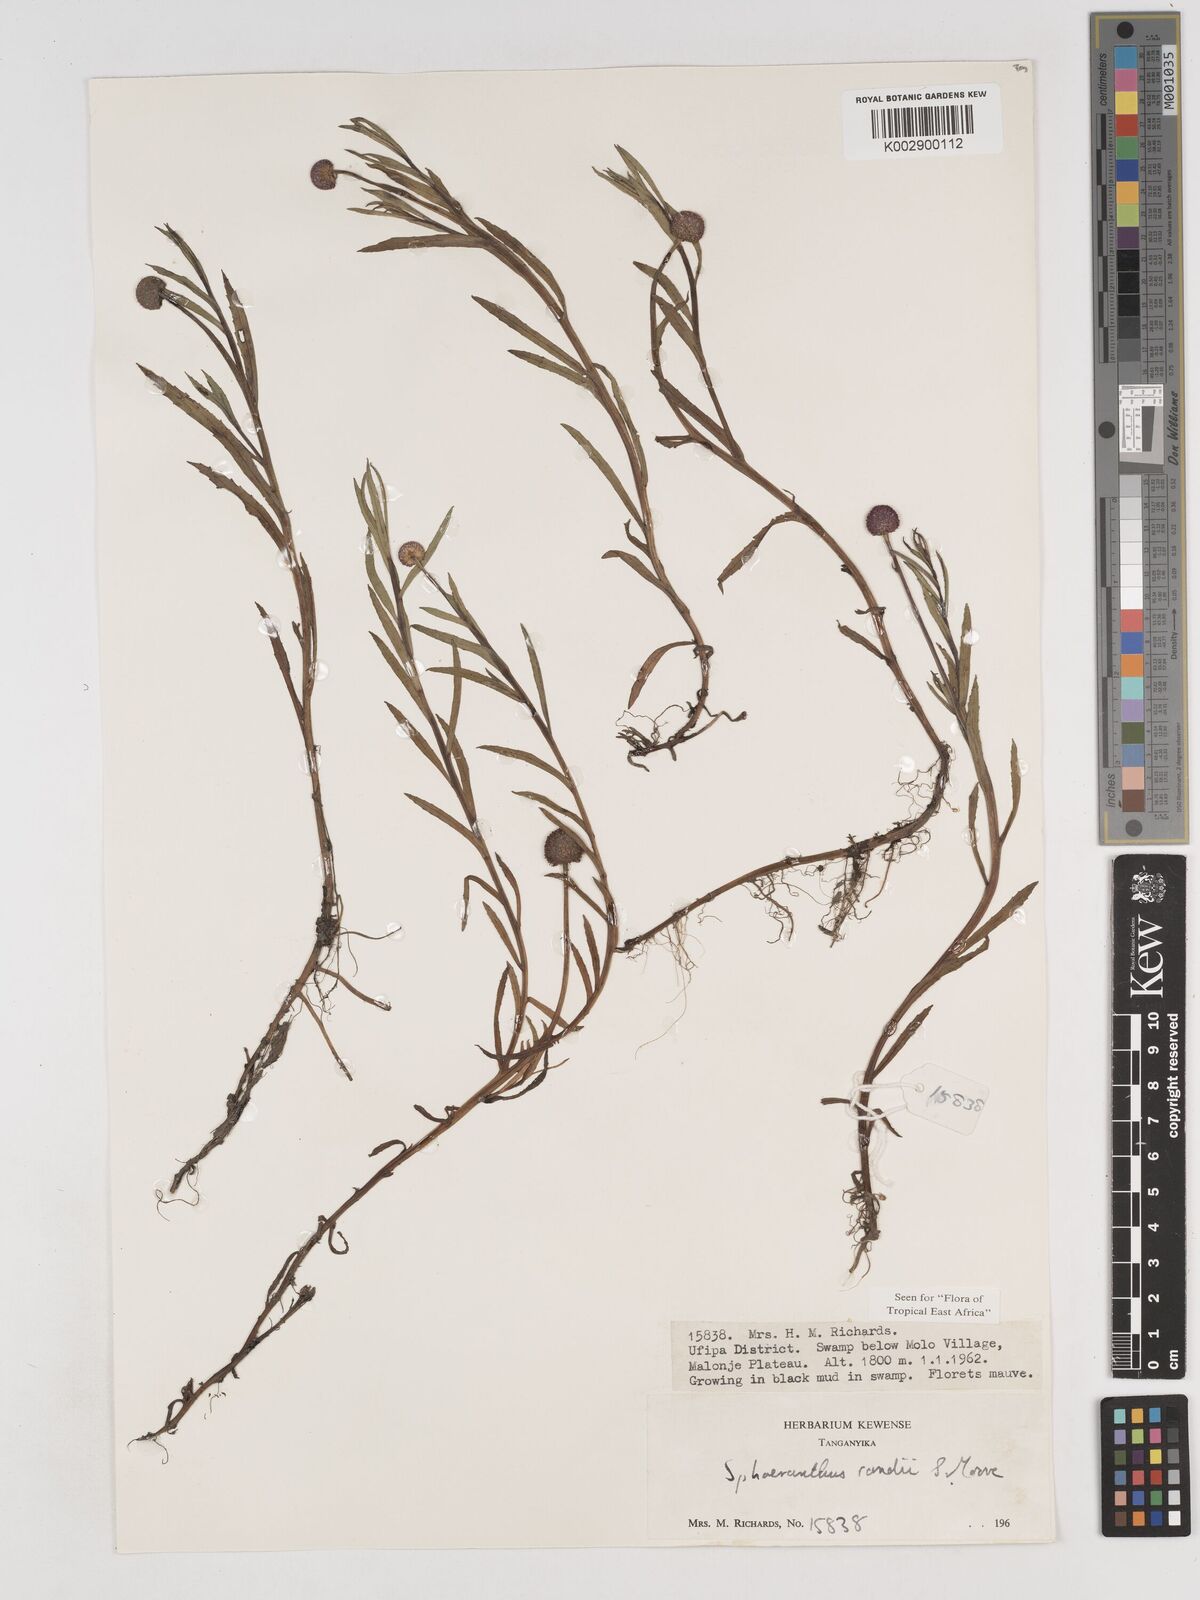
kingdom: Plantae
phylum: Tracheophyta
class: Magnoliopsida
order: Asterales
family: Asteraceae
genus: Sphaeranthus
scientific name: Sphaeranthus randii
